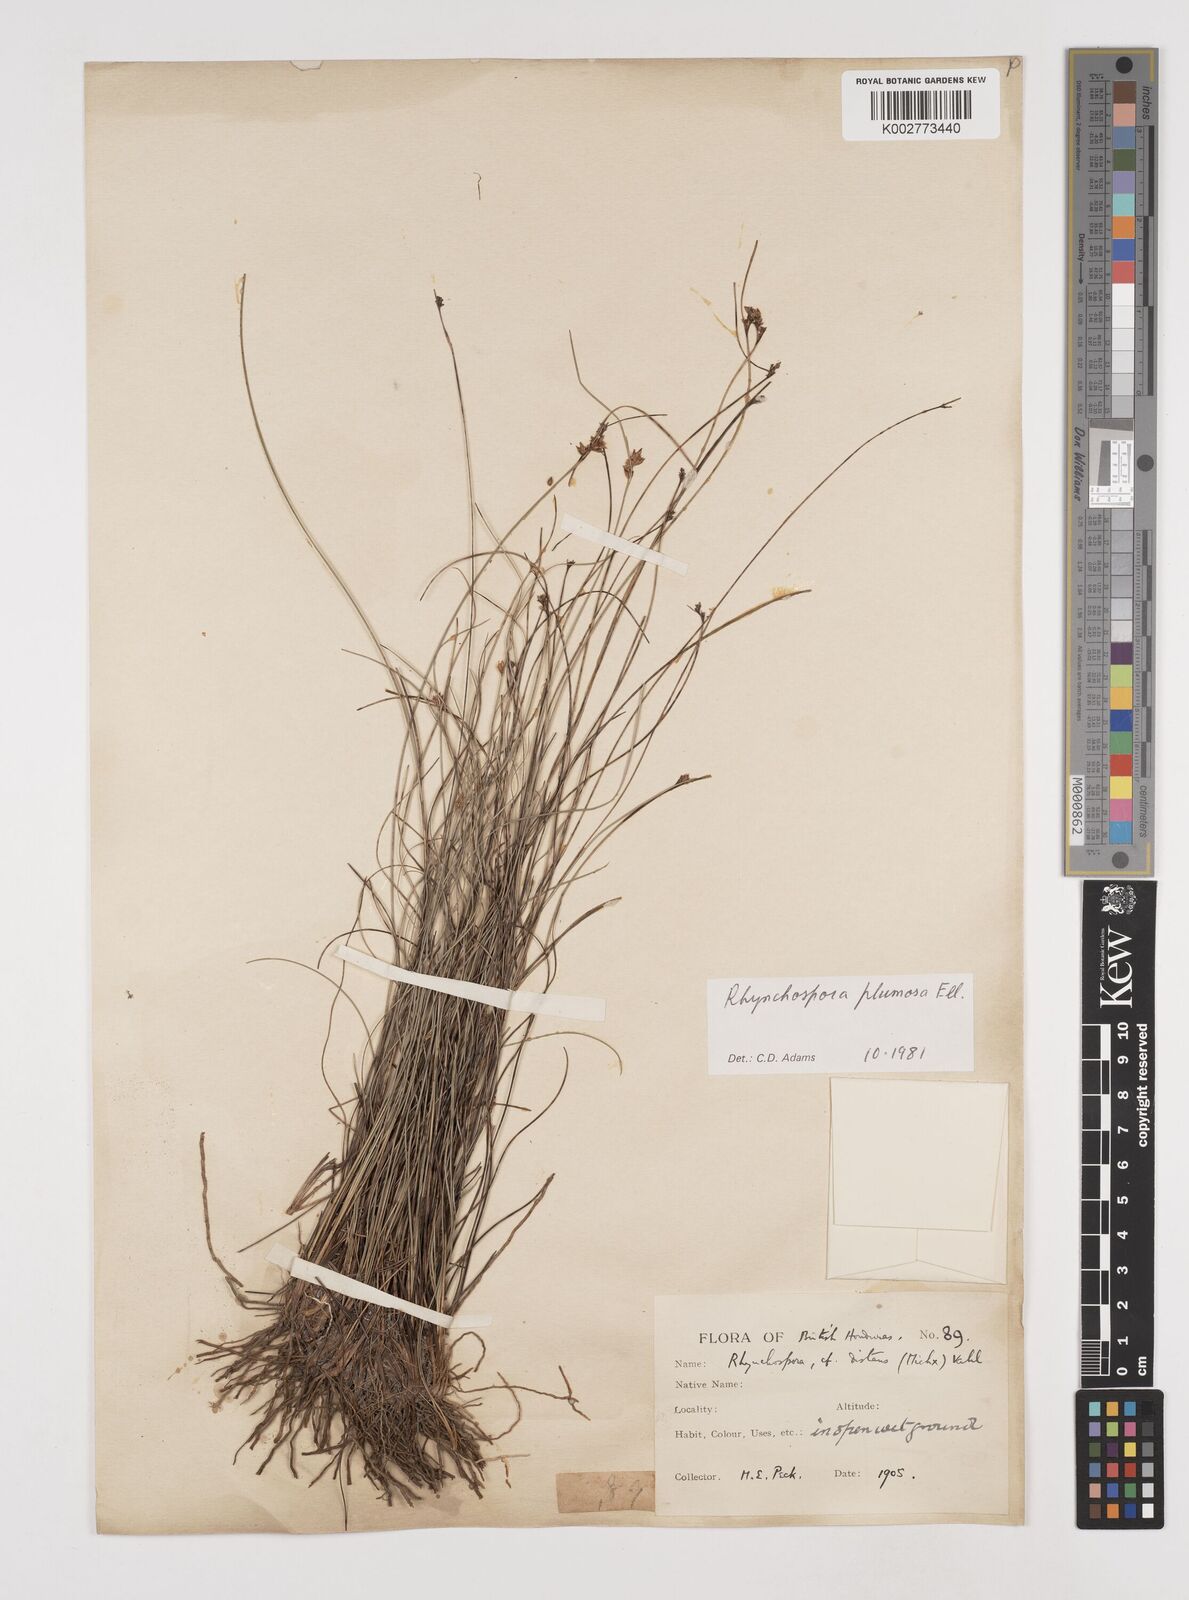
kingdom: Plantae
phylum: Tracheophyta
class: Liliopsida
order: Poales
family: Cyperaceae
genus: Rhynchospora
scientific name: Rhynchospora plumosa
